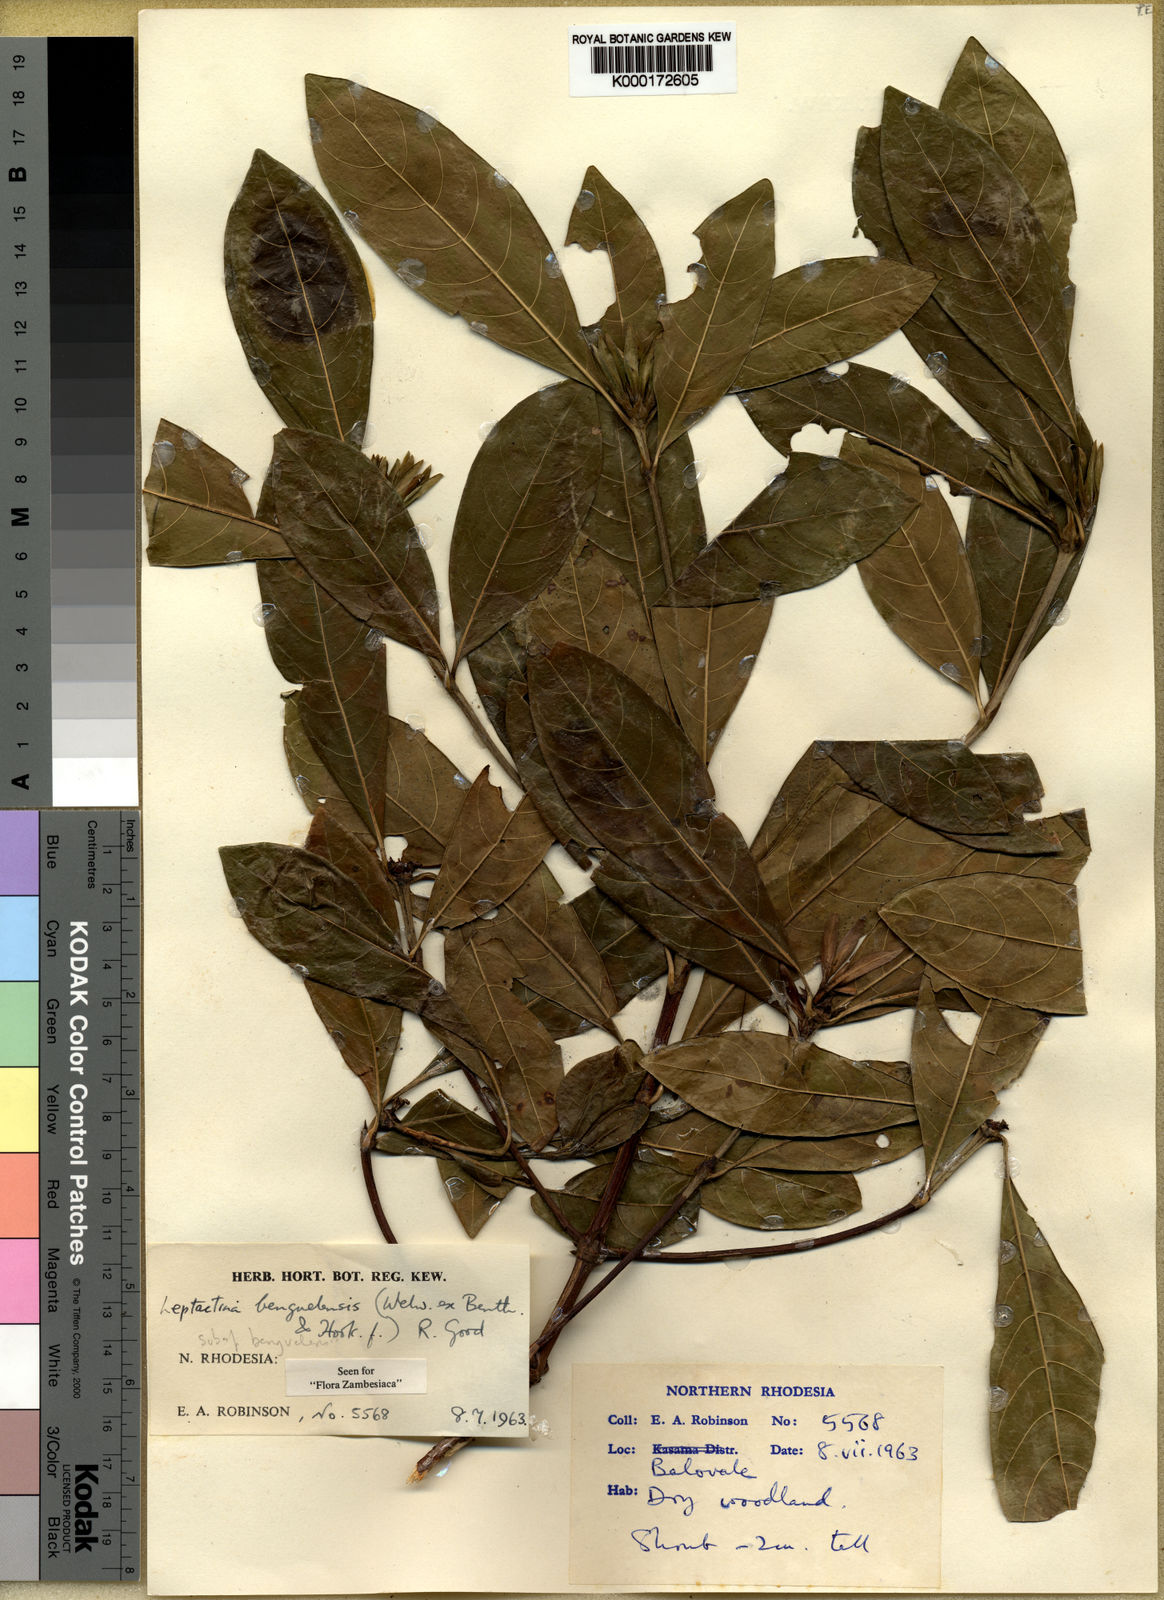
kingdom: Plantae
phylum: Tracheophyta
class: Magnoliopsida
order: Gentianales
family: Rubiaceae
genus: Leptactina
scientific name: Leptactina
